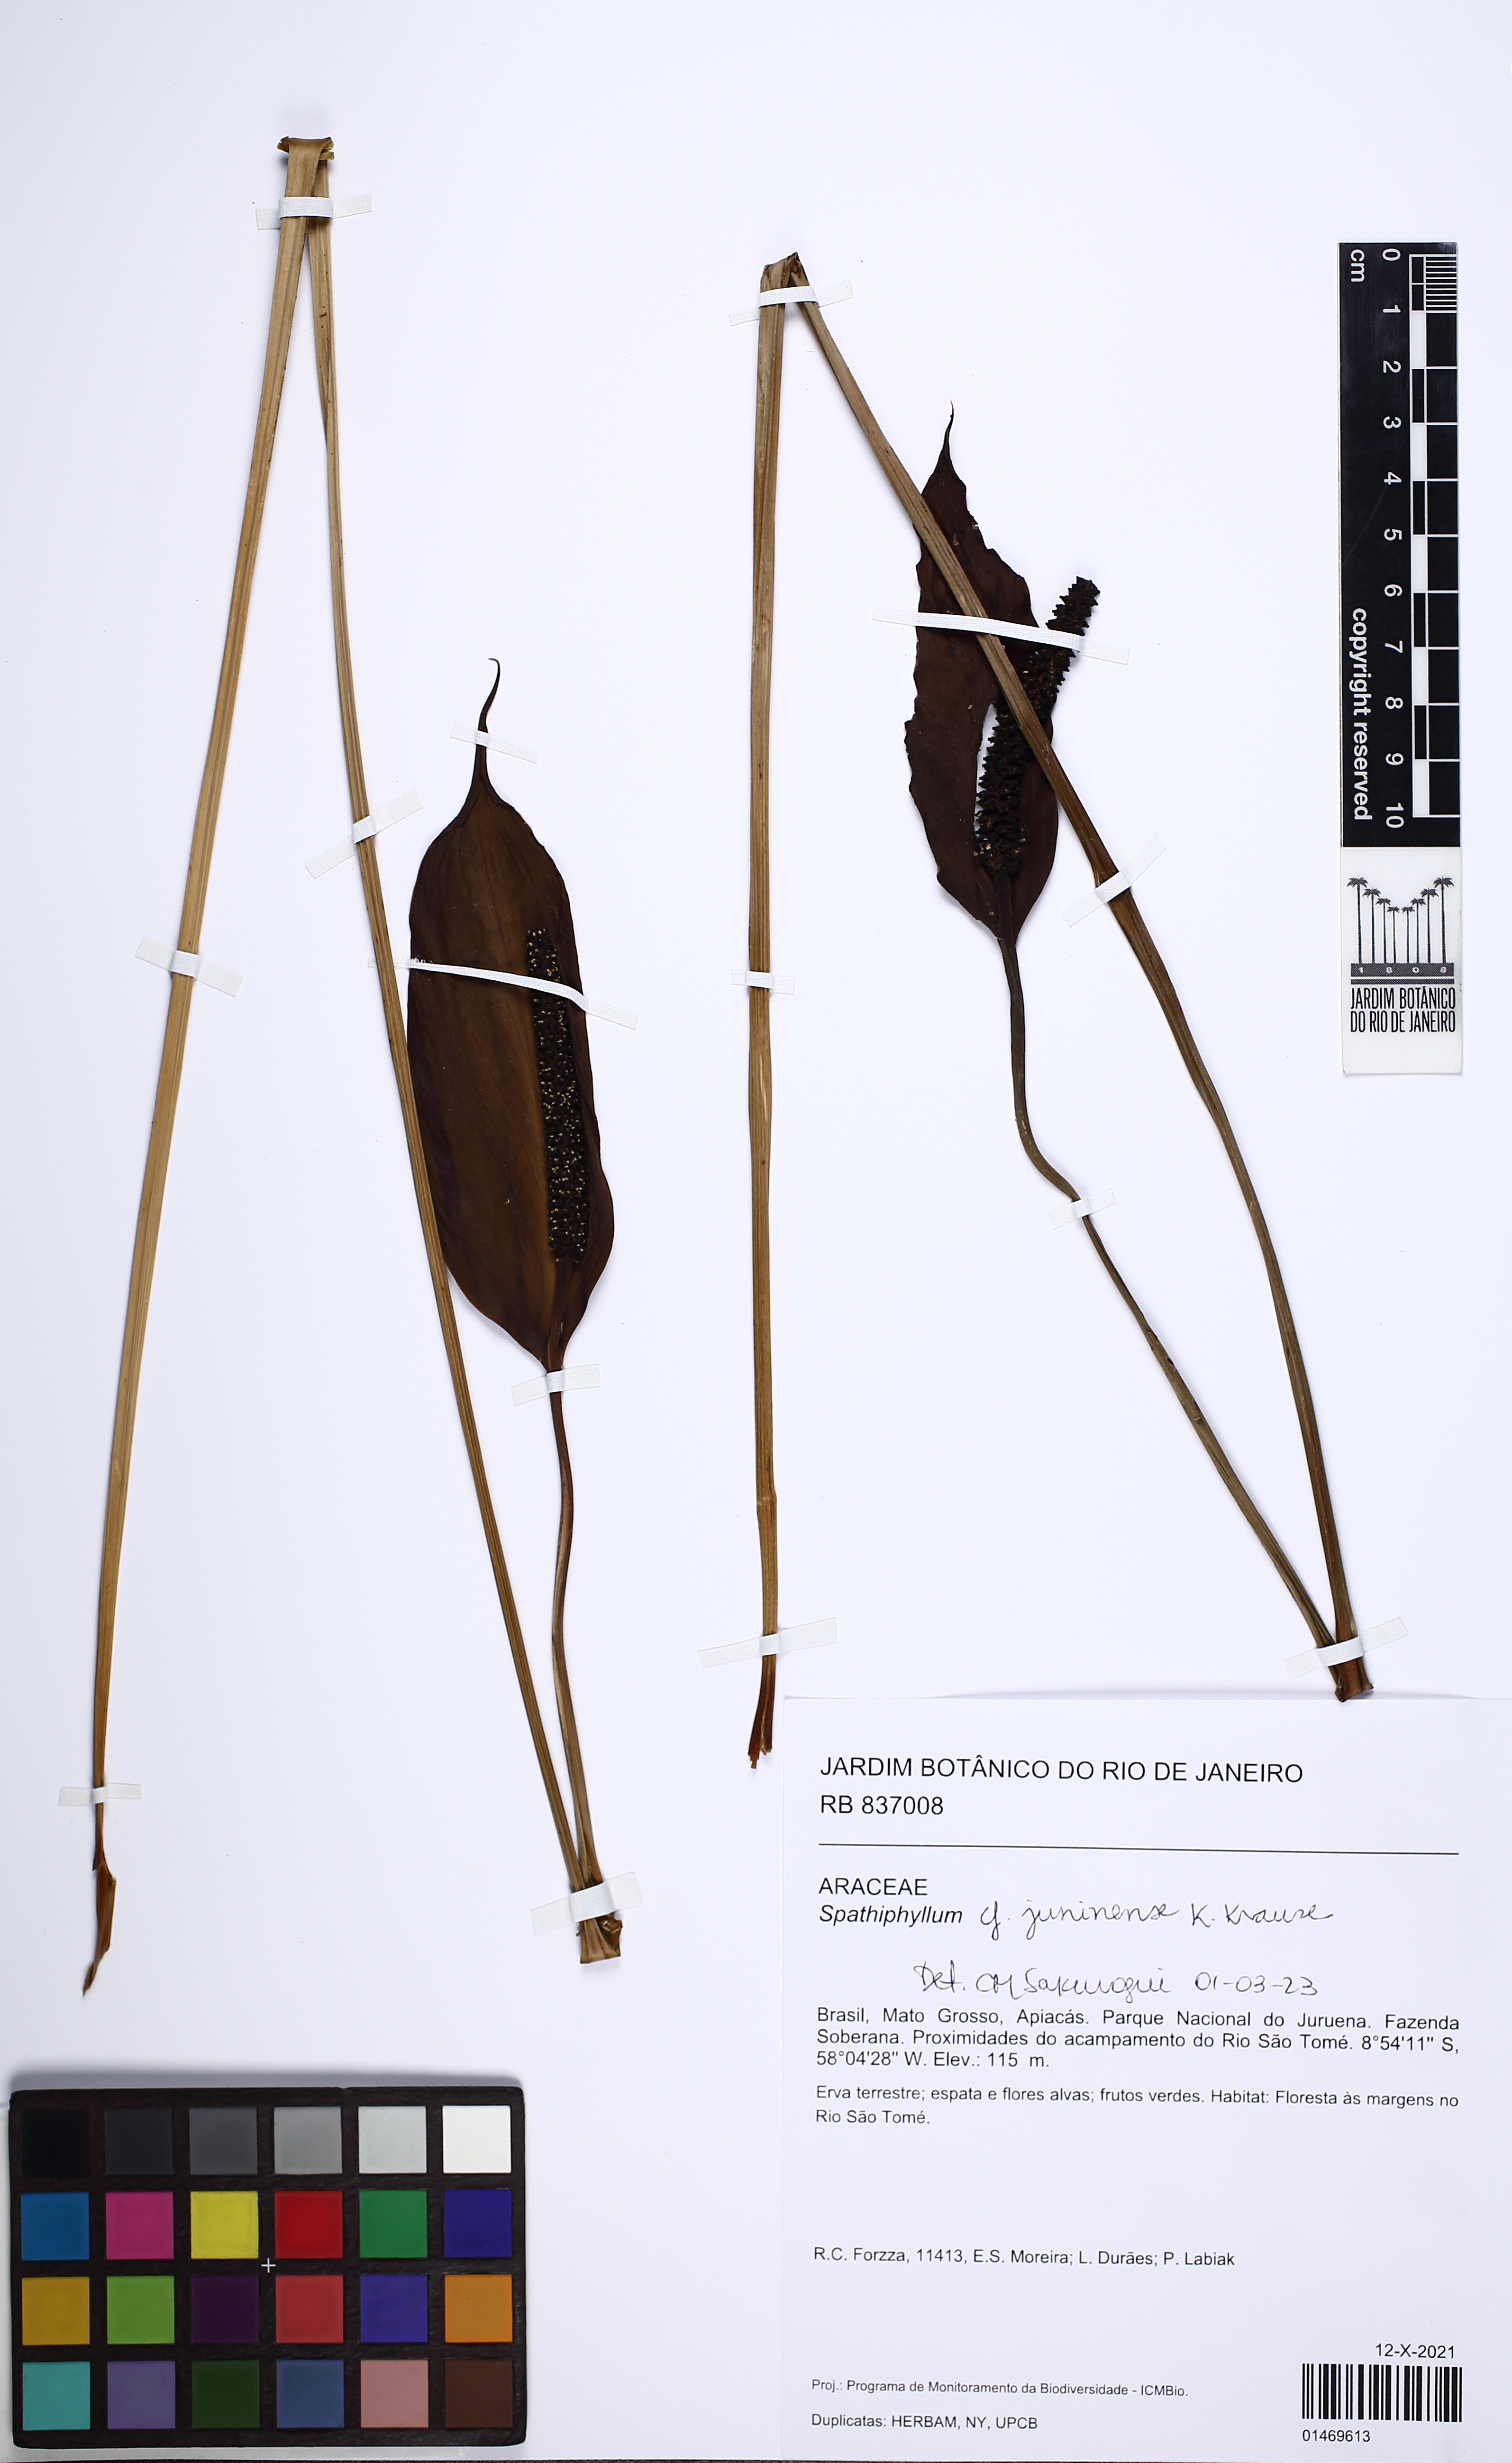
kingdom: Plantae
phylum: Tracheophyta
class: Liliopsida
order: Alismatales
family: Araceae
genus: Spathiphyllum
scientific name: Spathiphyllum juninense
